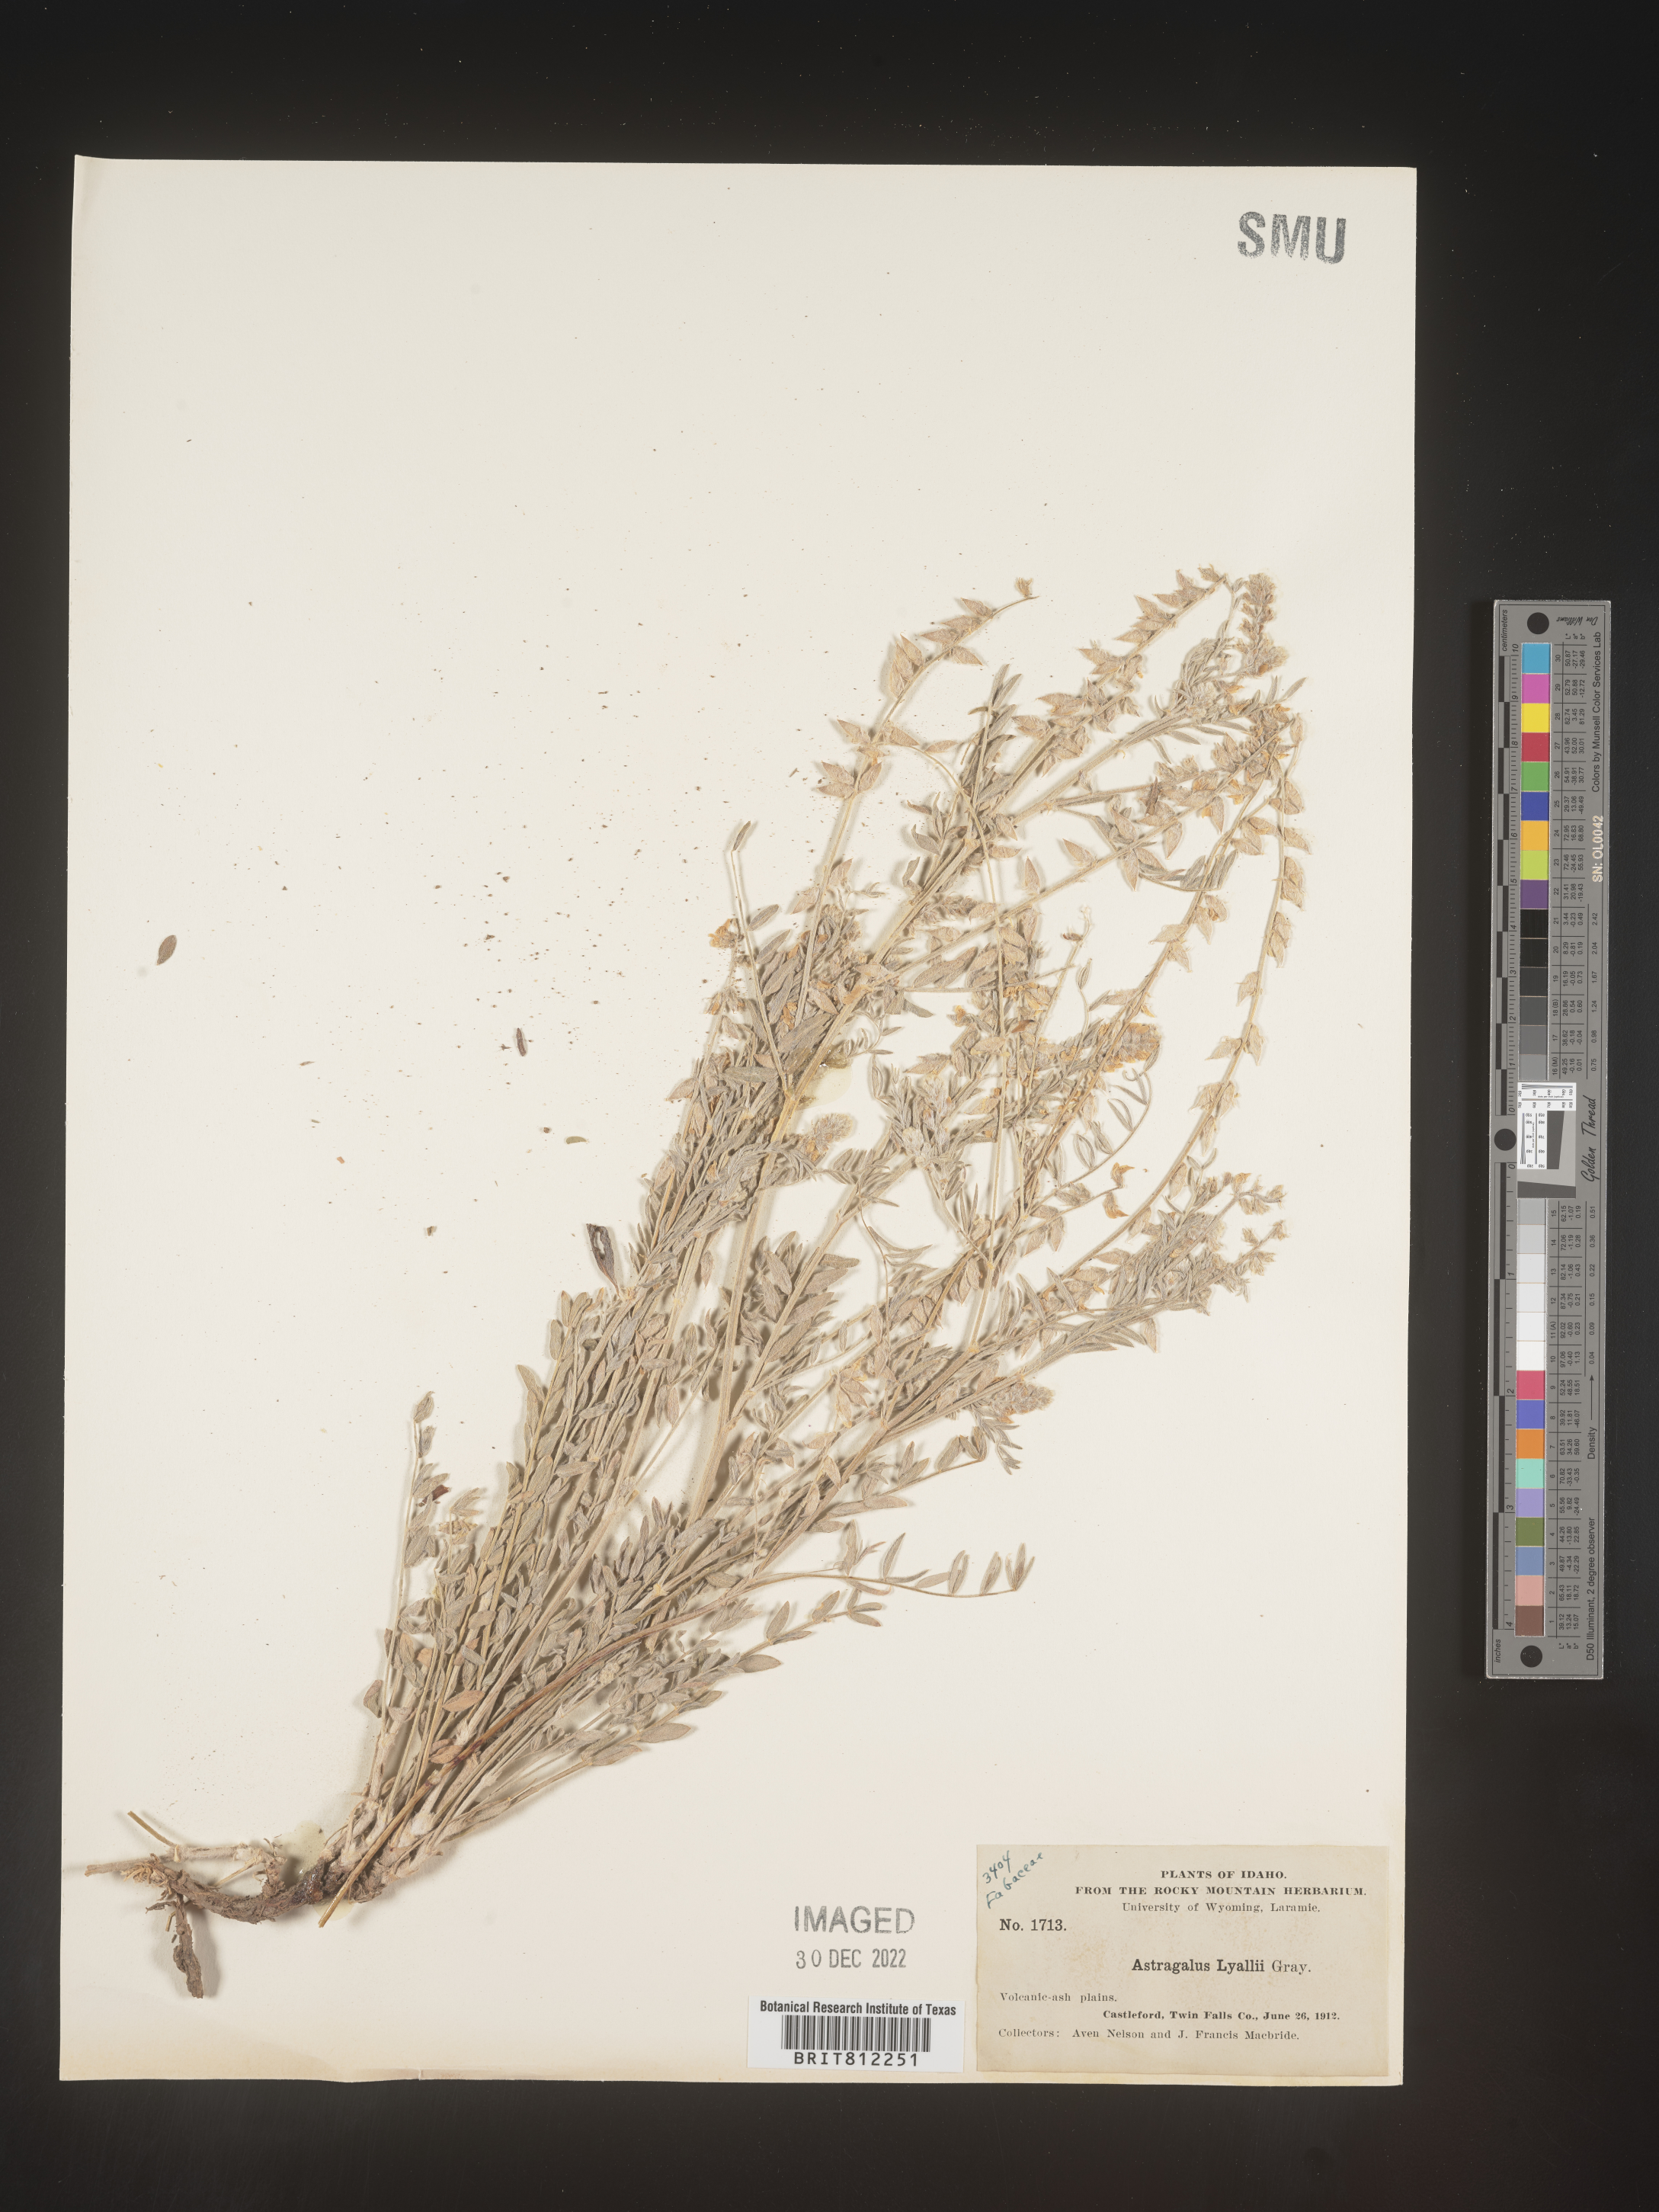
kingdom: Plantae
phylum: Tracheophyta
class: Magnoliopsida
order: Fabales
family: Fabaceae
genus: Astragalus
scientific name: Astragalus
